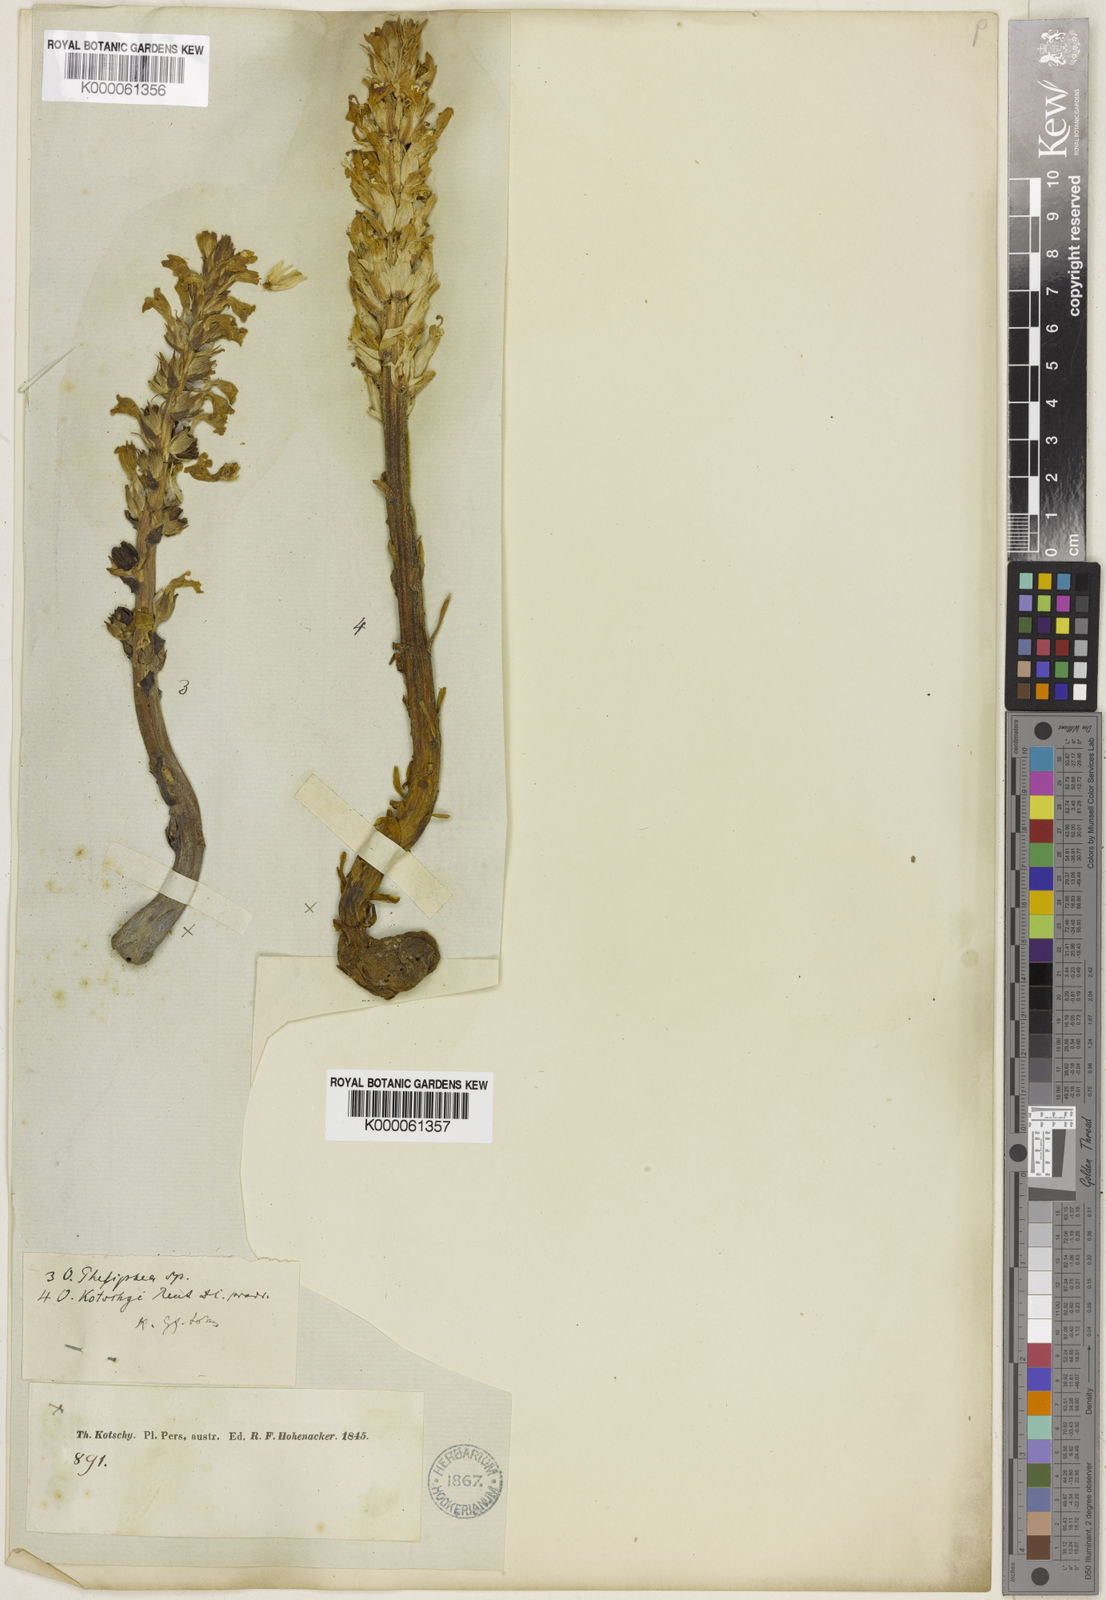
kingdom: Plantae
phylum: Tracheophyta
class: Magnoliopsida
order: Lamiales
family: Orobanchaceae
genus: Orobanche
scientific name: Orobanche kotschyi
